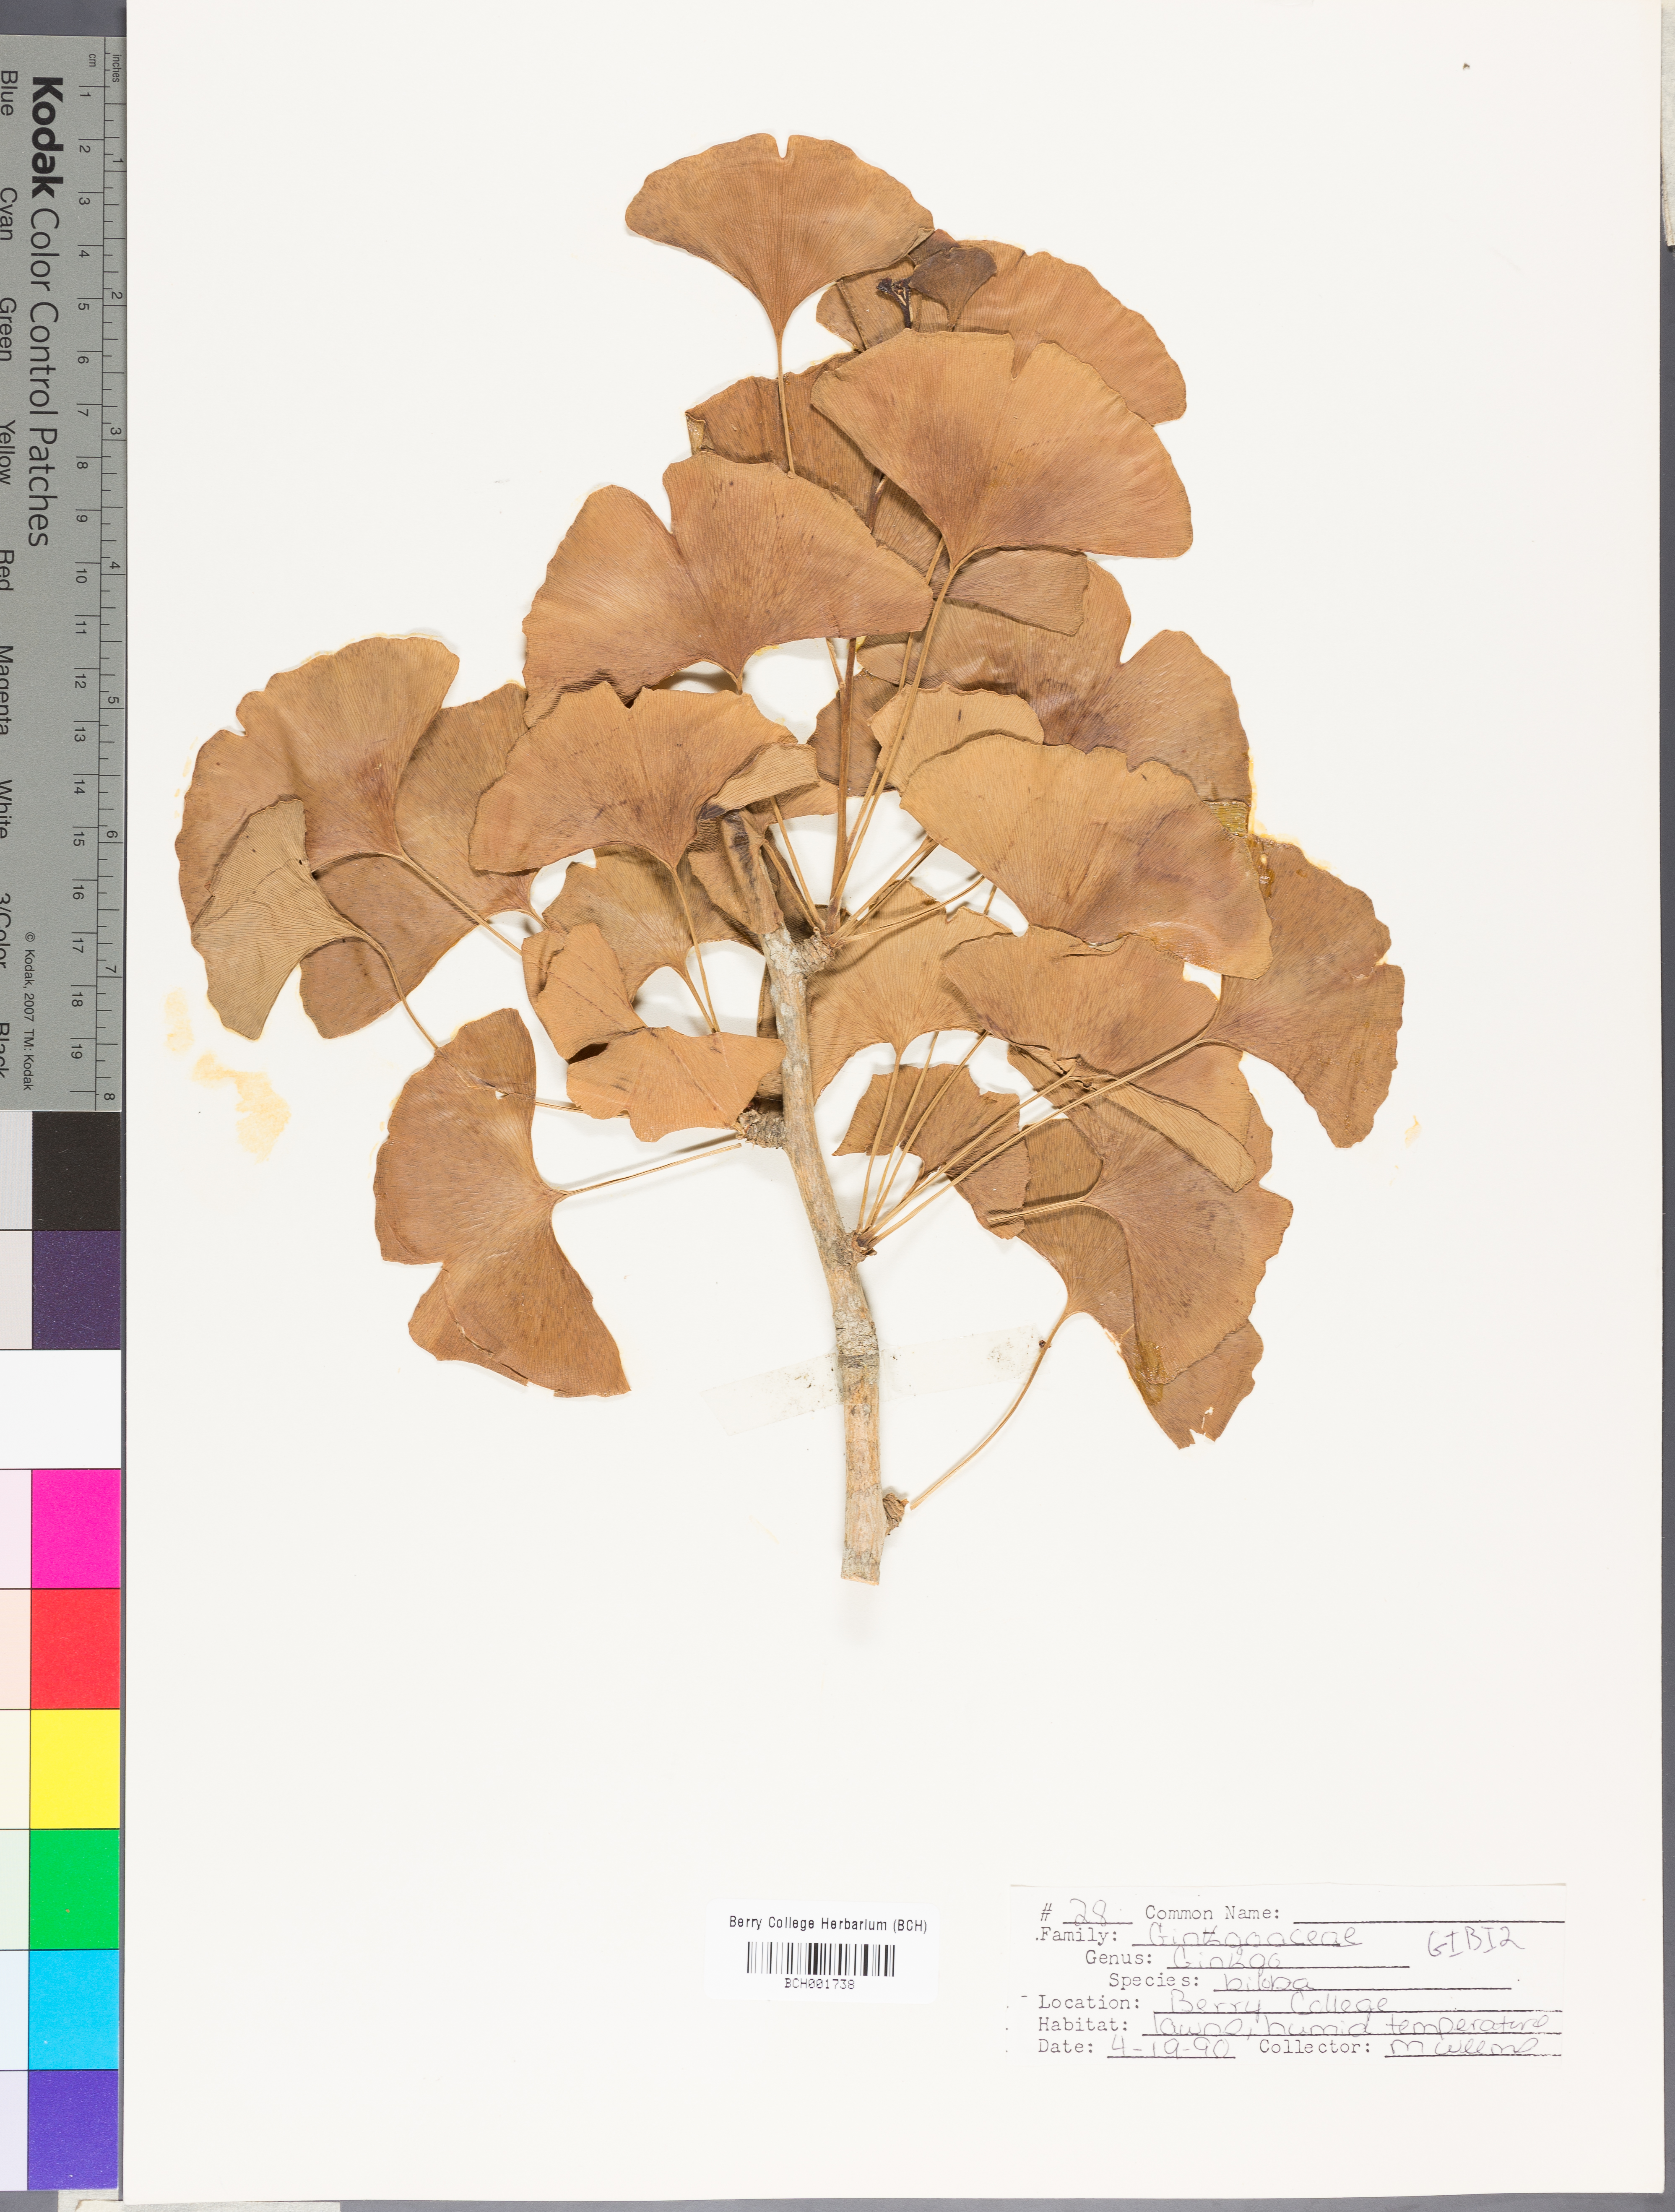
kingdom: Plantae
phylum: Tracheophyta
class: Ginkgoopsida
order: Ginkgoales
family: Ginkgoaceae
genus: Ginkgo
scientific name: Ginkgo biloba
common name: Ginkgo
